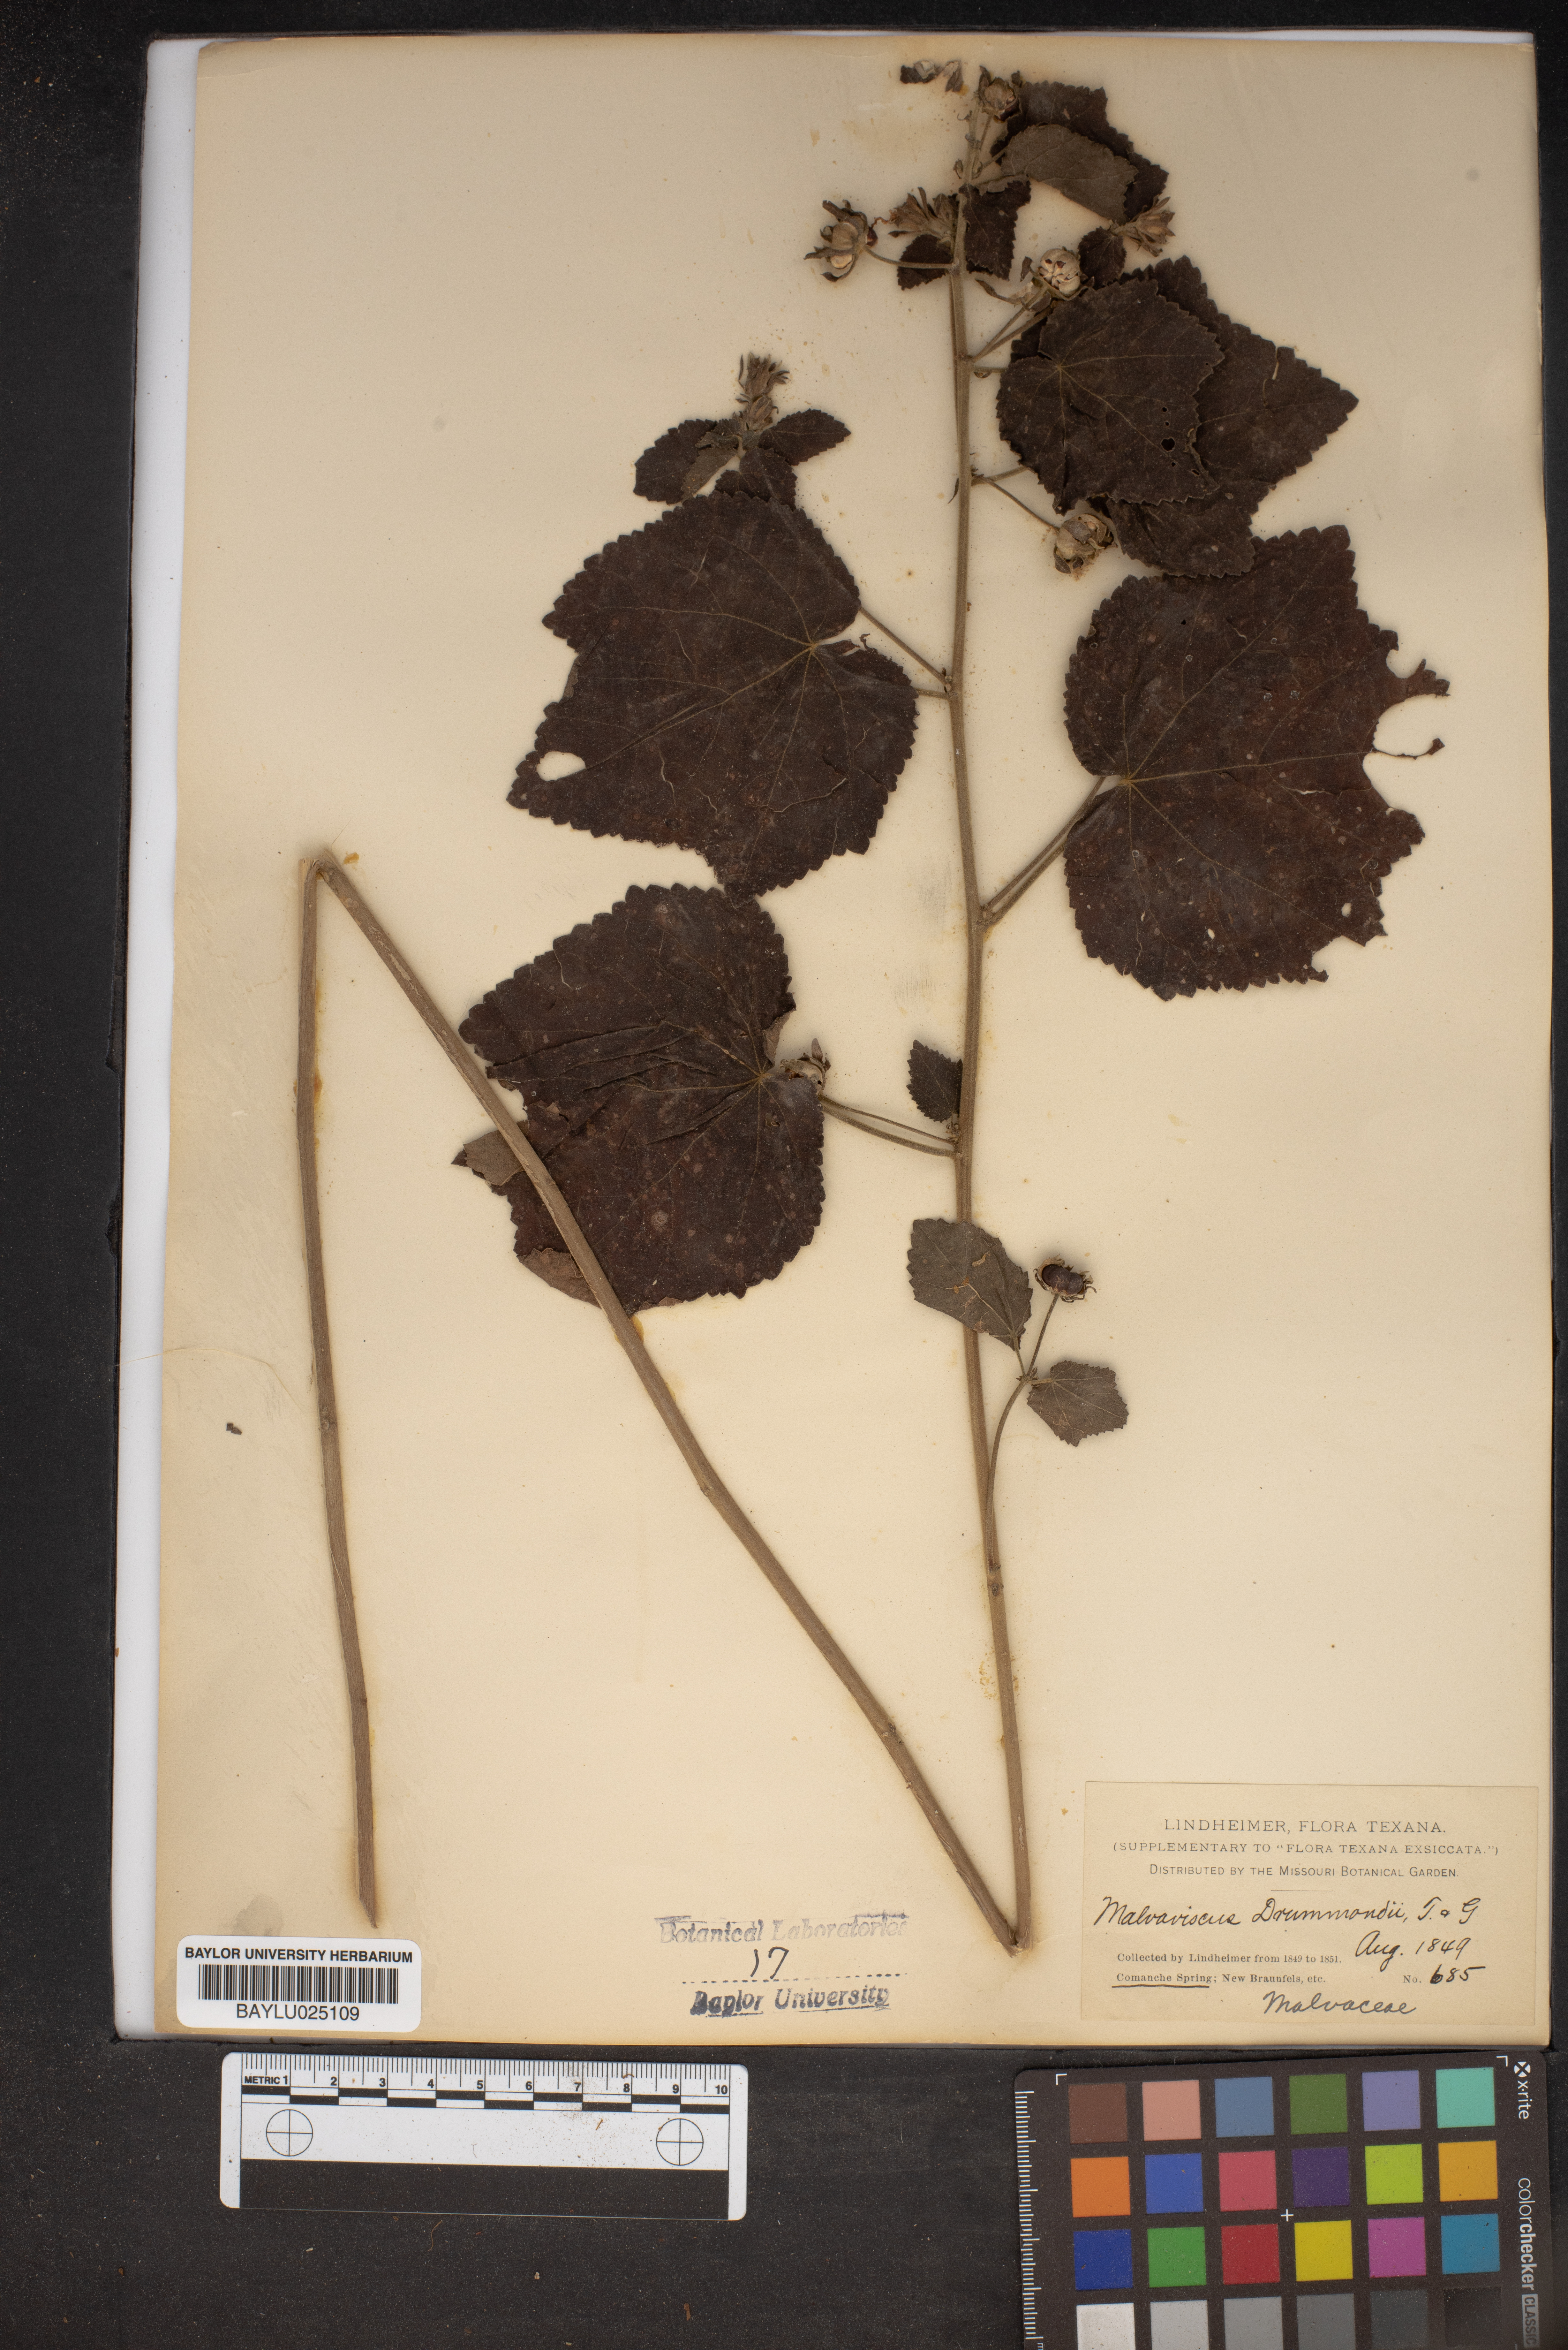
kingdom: Plantae
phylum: Tracheophyta
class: Magnoliopsida
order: Malvales
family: Malvaceae
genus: Malvaviscus
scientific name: Malvaviscus arboreus
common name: Wax mallow
